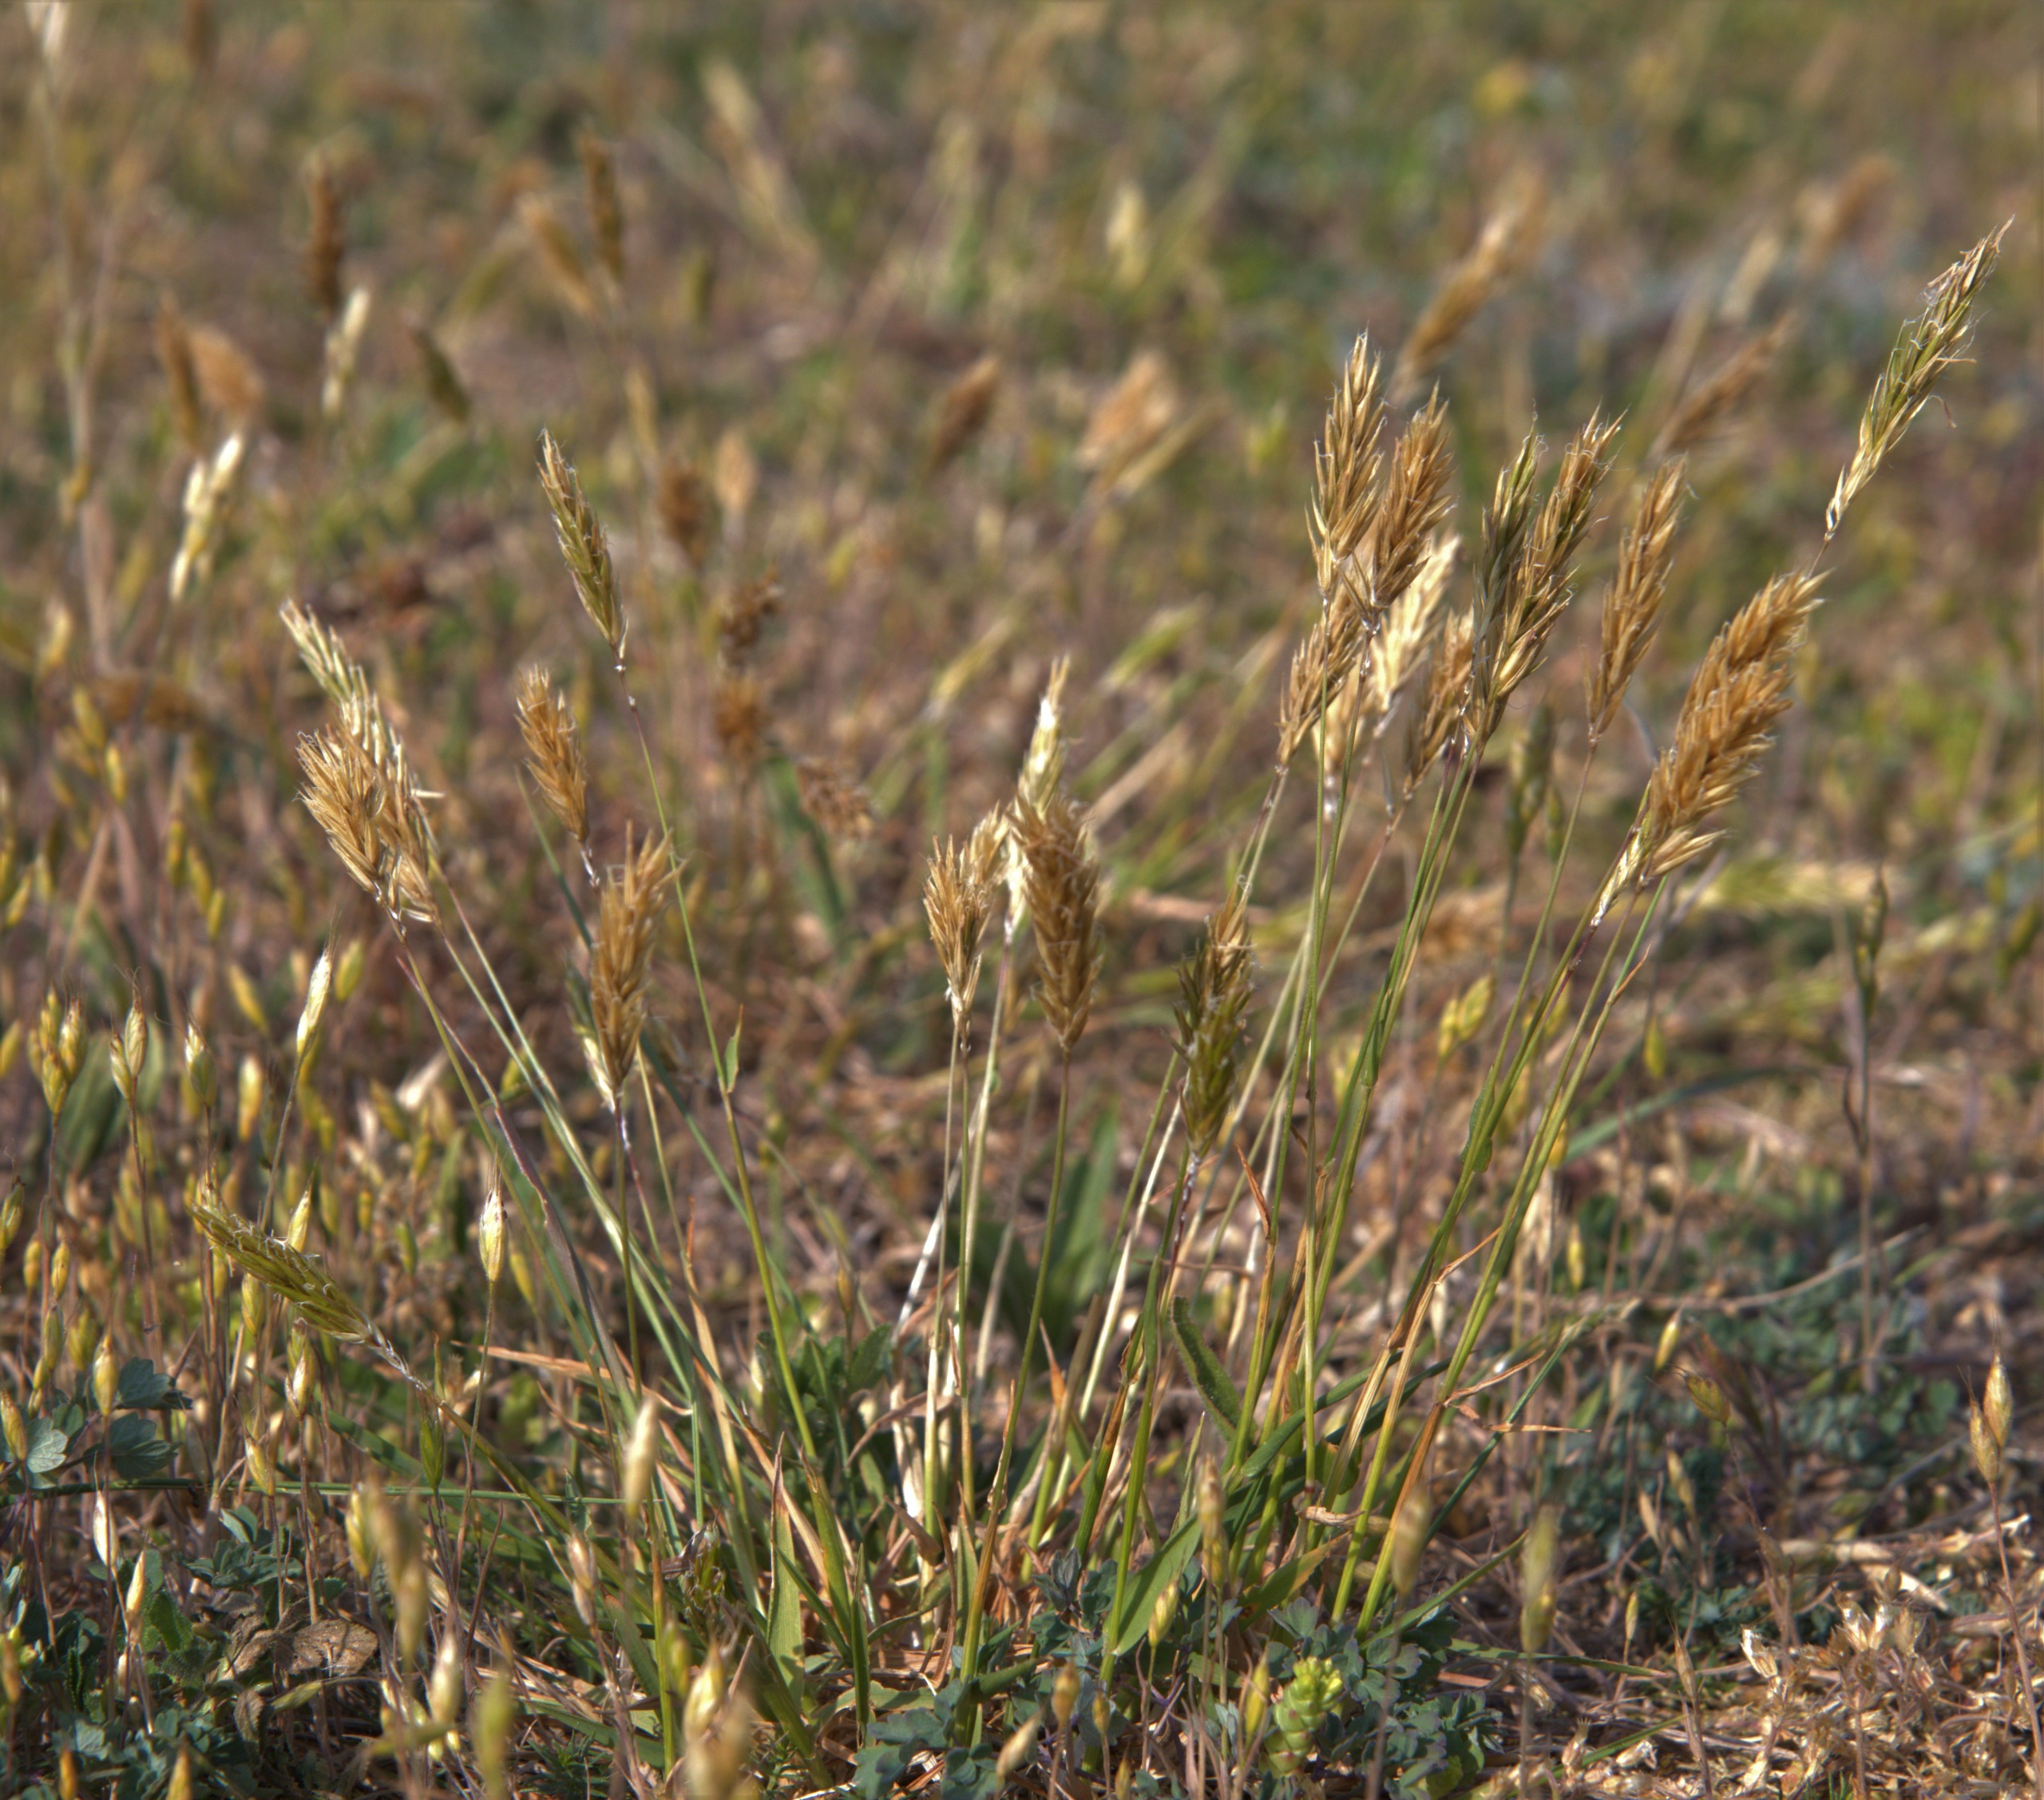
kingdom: Plantae
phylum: Tracheophyta
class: Liliopsida
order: Poales
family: Poaceae
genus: Anthoxanthum
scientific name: Anthoxanthum odoratum
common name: Vellugtende gulaks
